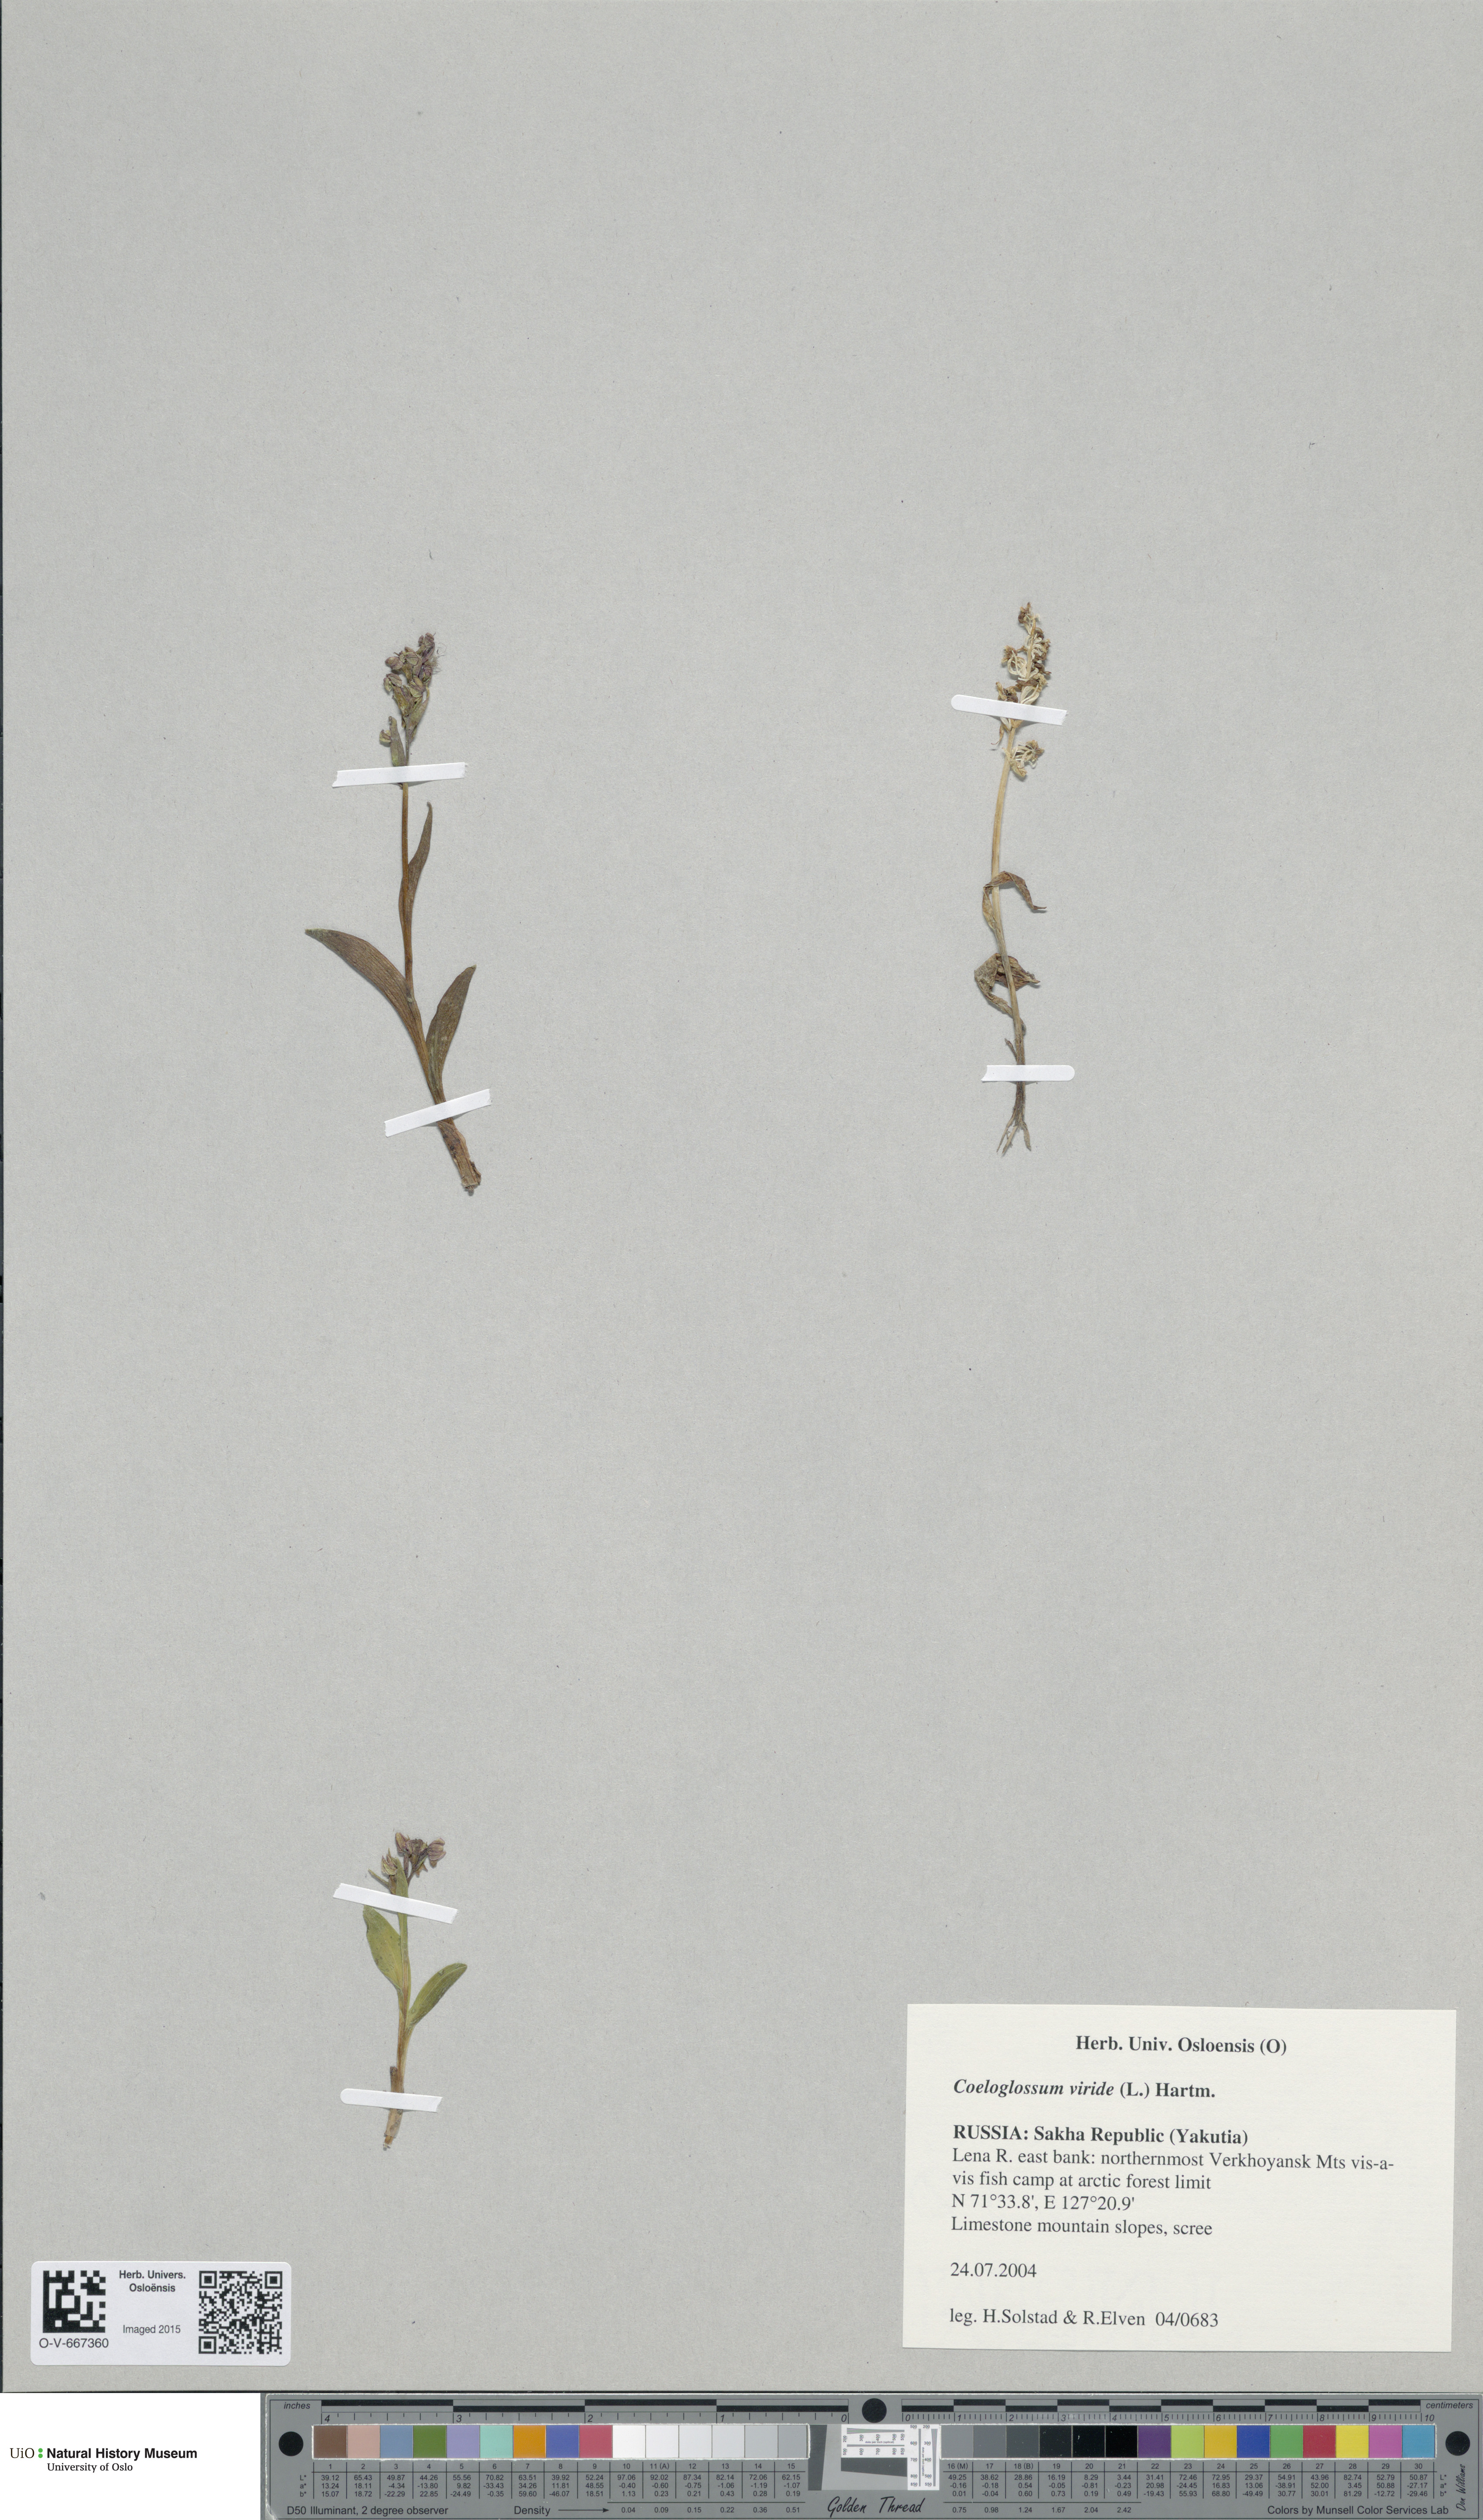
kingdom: Plantae
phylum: Tracheophyta
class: Liliopsida
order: Asparagales
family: Orchidaceae
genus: Dactylorhiza
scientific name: Dactylorhiza viridis
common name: Longbract frog orchid
